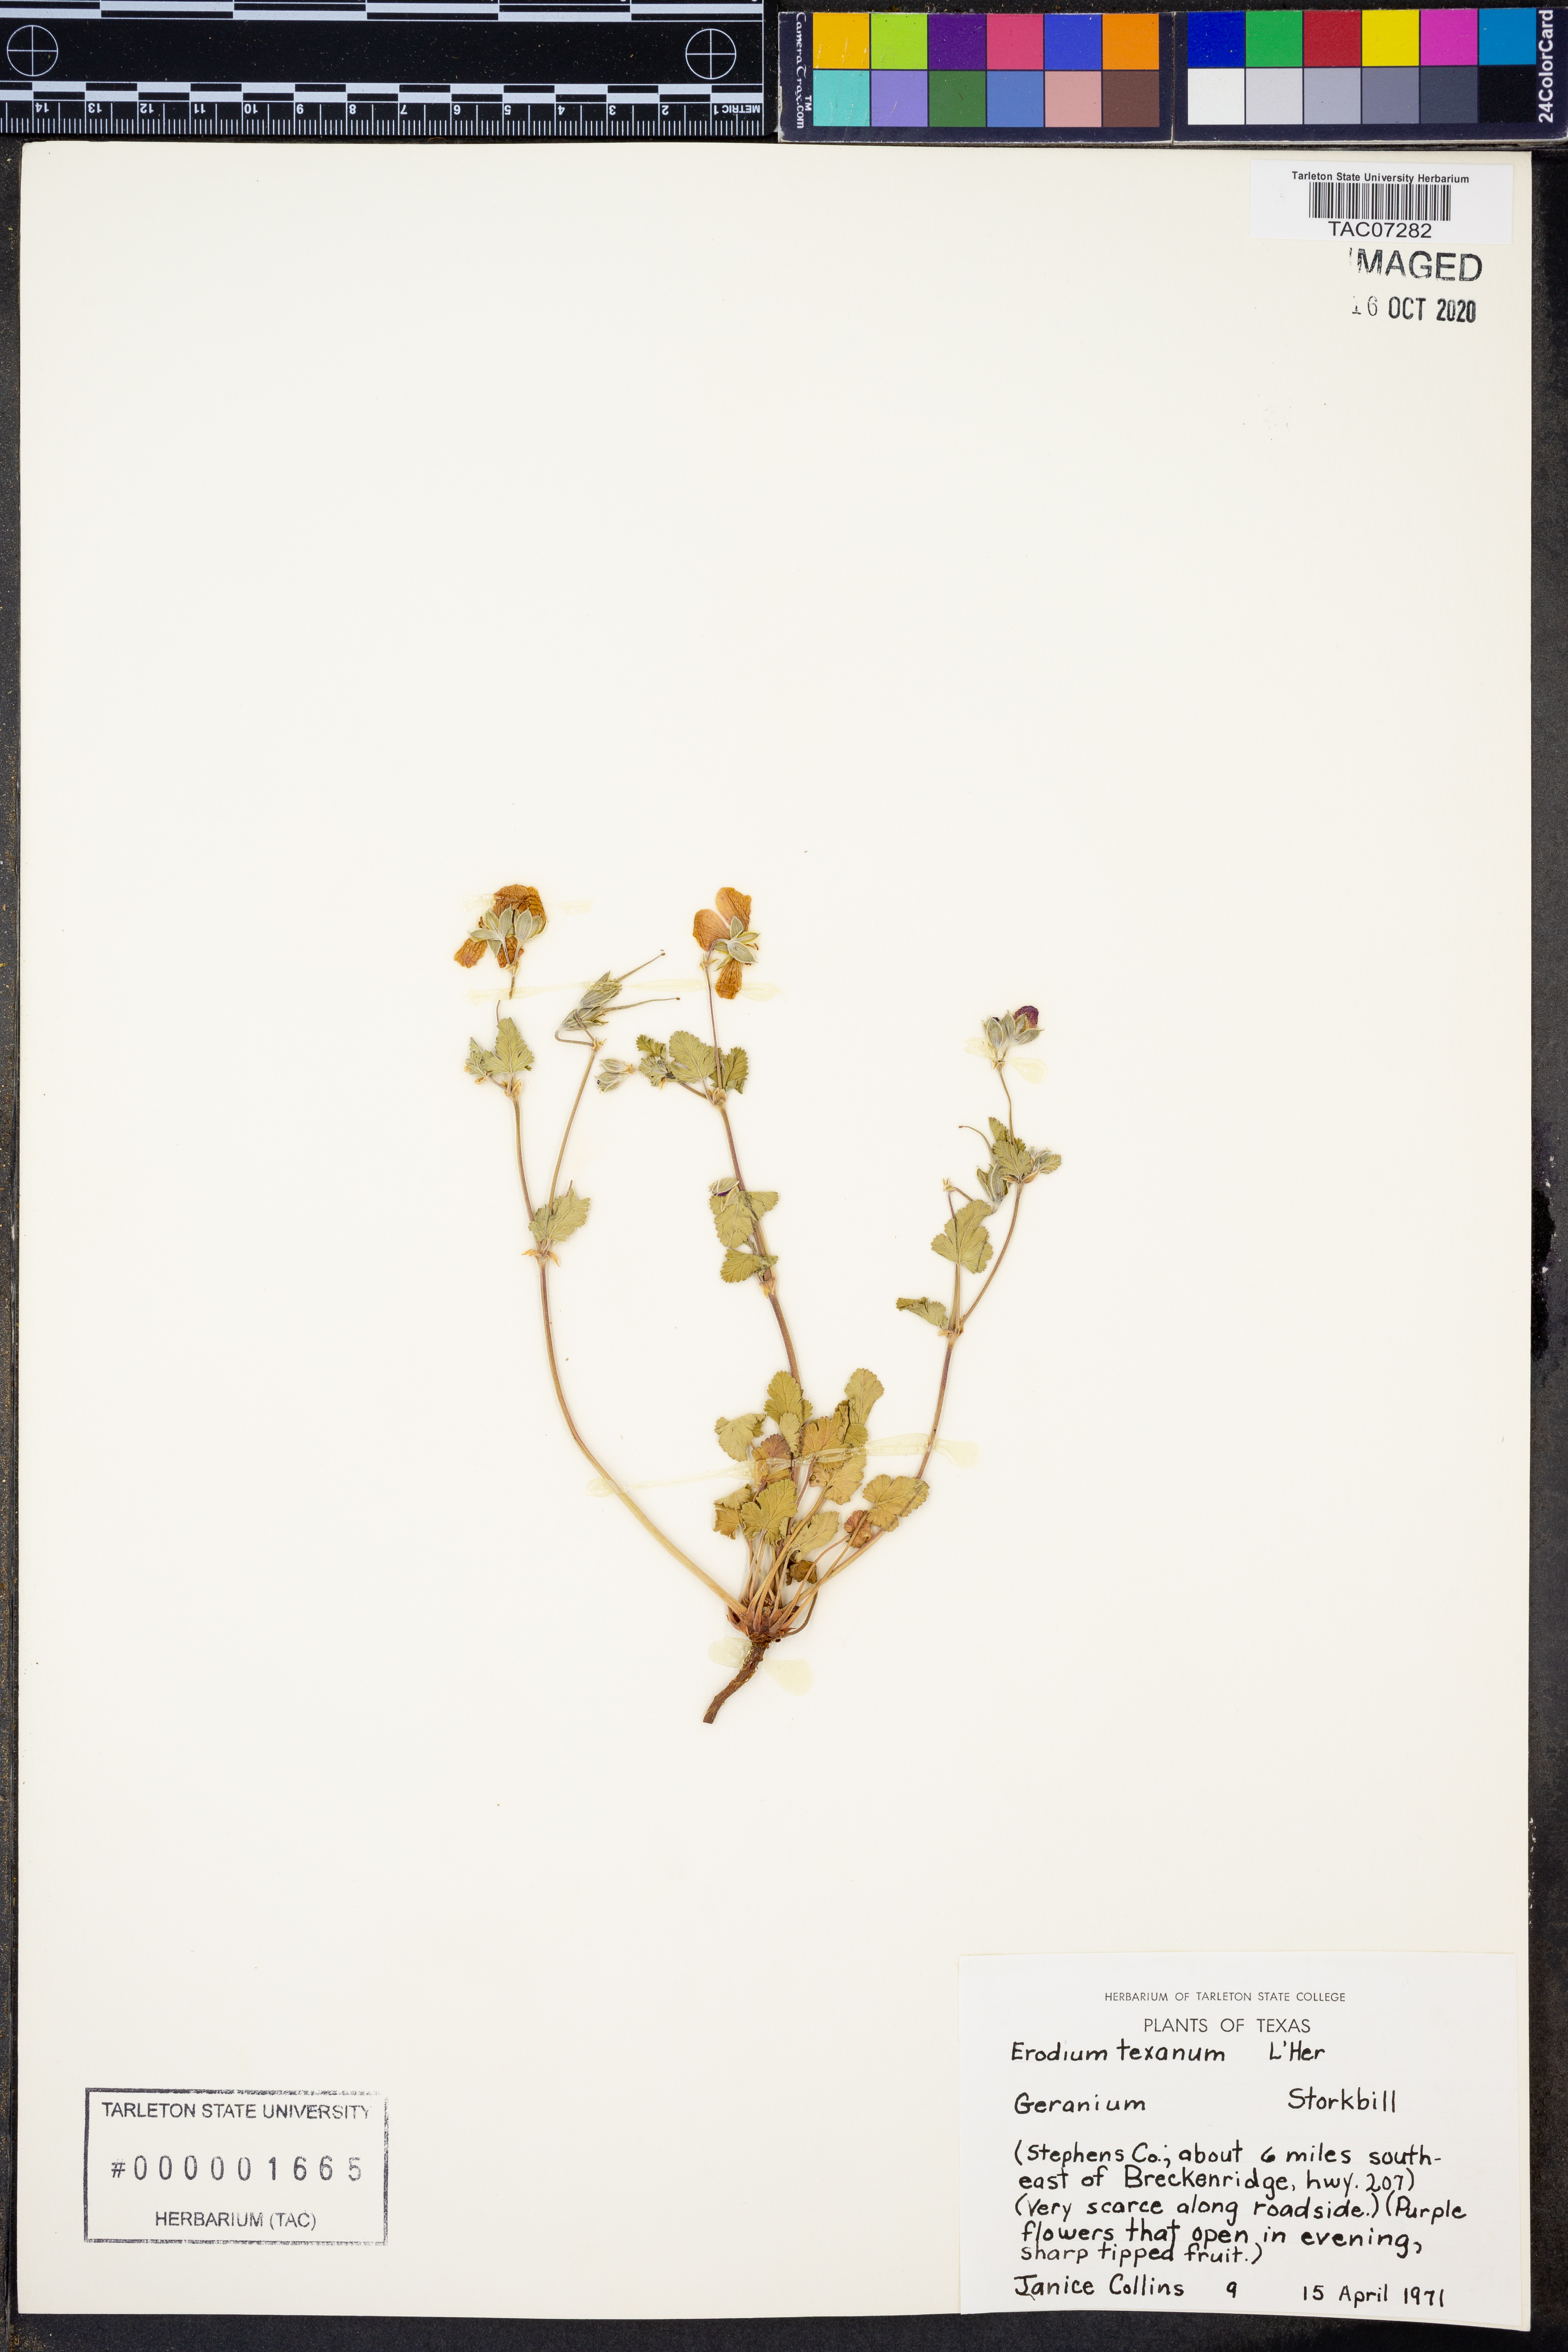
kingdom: Plantae
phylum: Tracheophyta
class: Magnoliopsida
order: Geraniales
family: Geraniaceae
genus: Erodium
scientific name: Erodium texanum
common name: Texas stork's-bill
